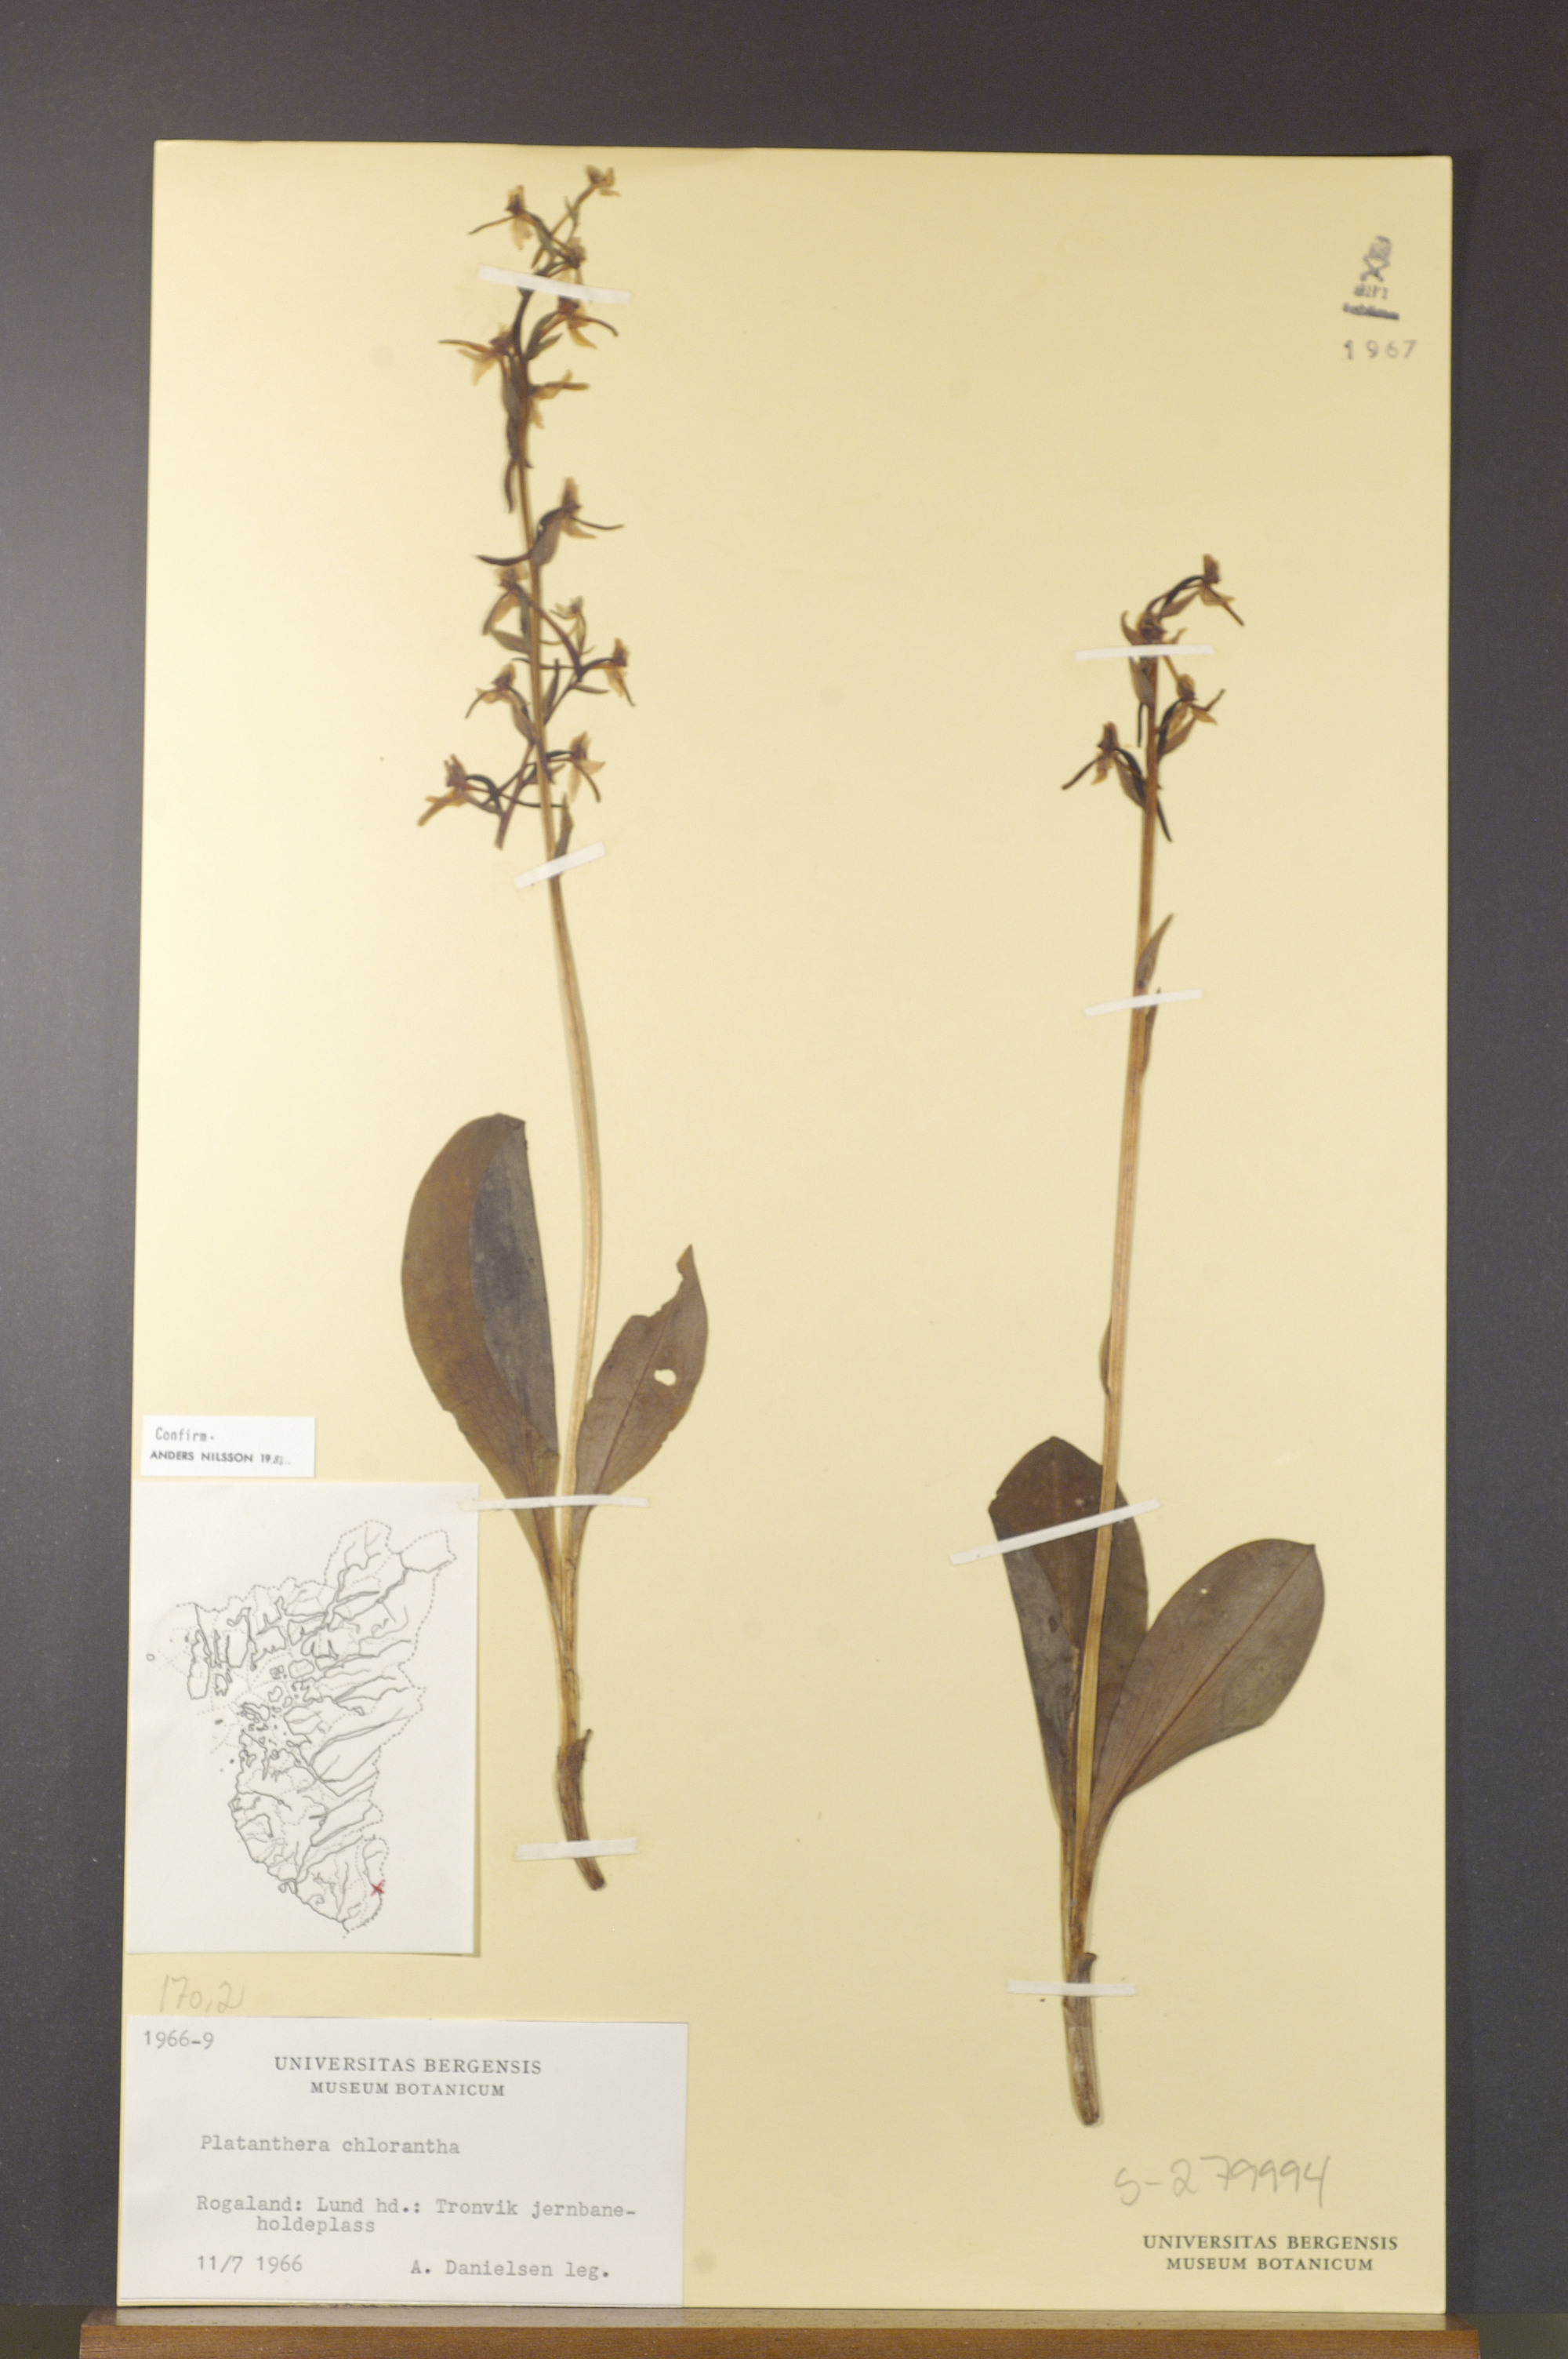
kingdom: Plantae
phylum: Tracheophyta
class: Liliopsida
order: Asparagales
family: Orchidaceae
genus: Platanthera
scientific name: Platanthera chlorantha
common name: Greater butterfly-orchid
